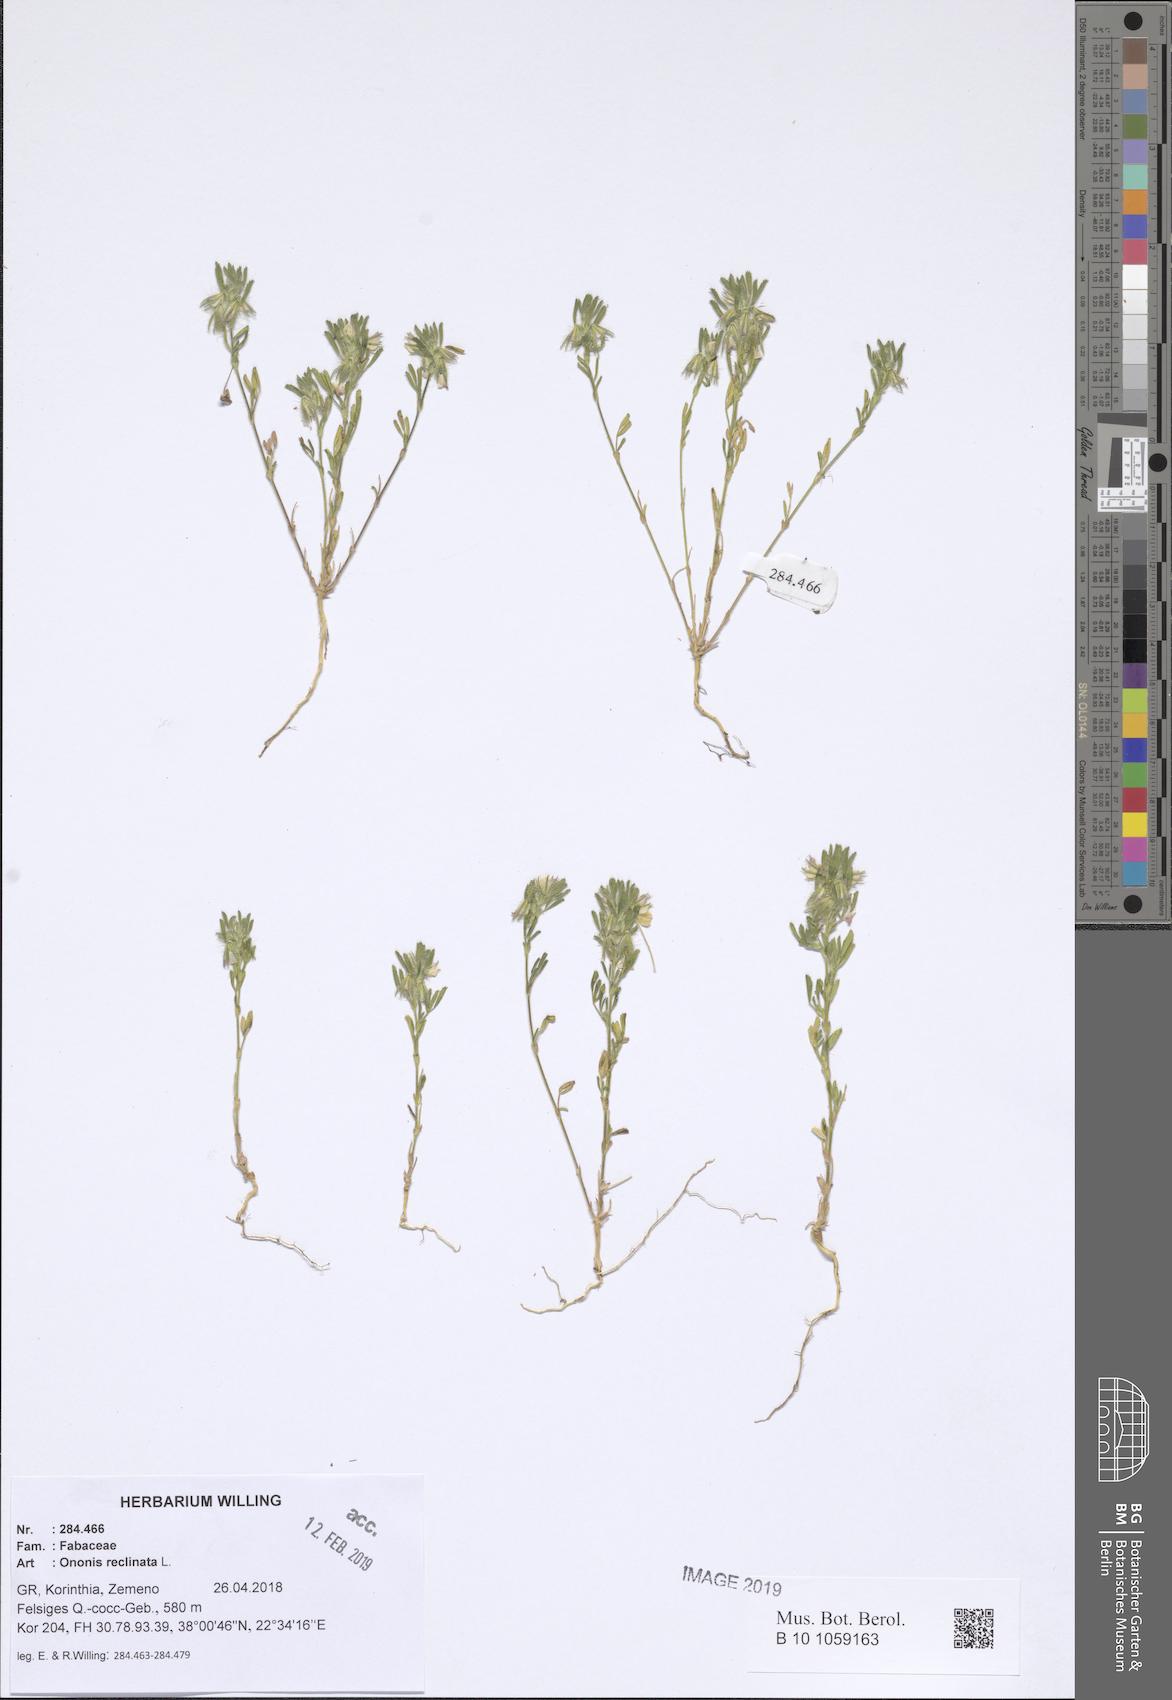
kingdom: Plantae
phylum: Tracheophyta
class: Magnoliopsida
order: Fabales
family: Fabaceae
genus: Ononis
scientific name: Ononis reclinata
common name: Small restharrow
